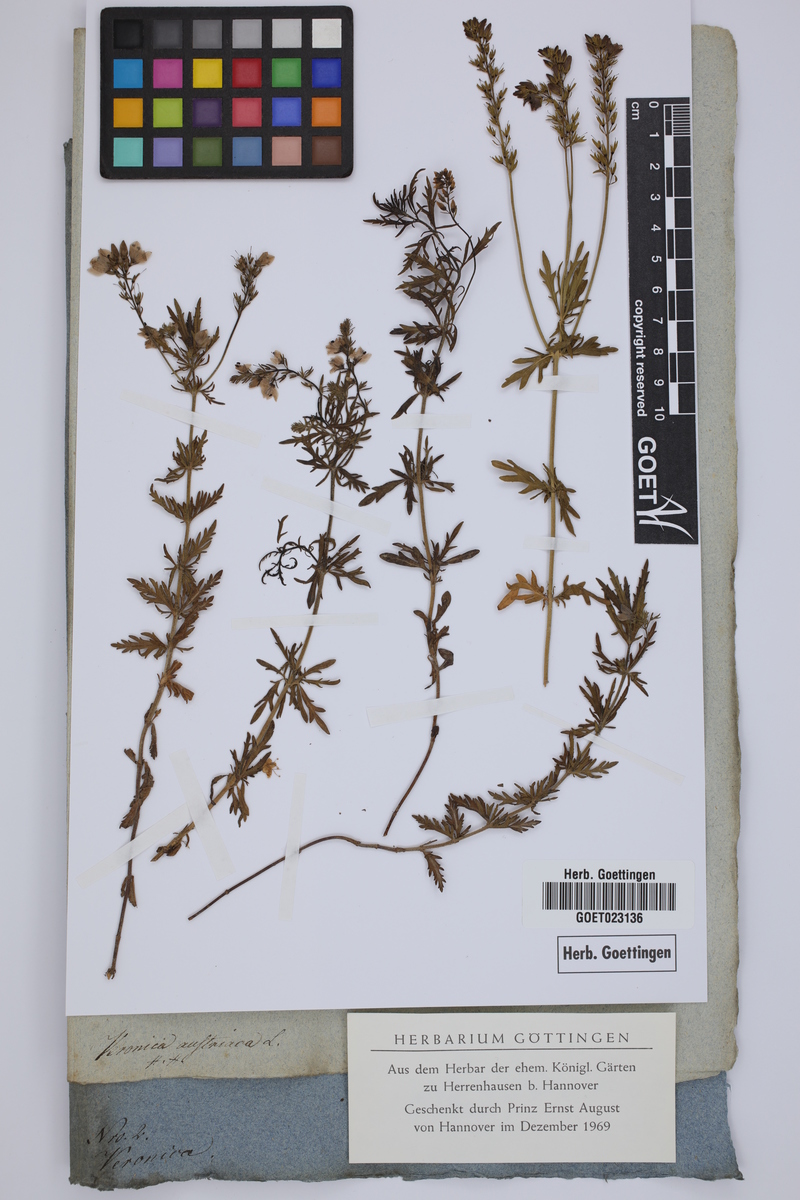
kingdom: Plantae
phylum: Tracheophyta
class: Magnoliopsida
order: Lamiales
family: Plantaginaceae
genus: Veronica
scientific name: Veronica austriaca
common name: Large speedwell
